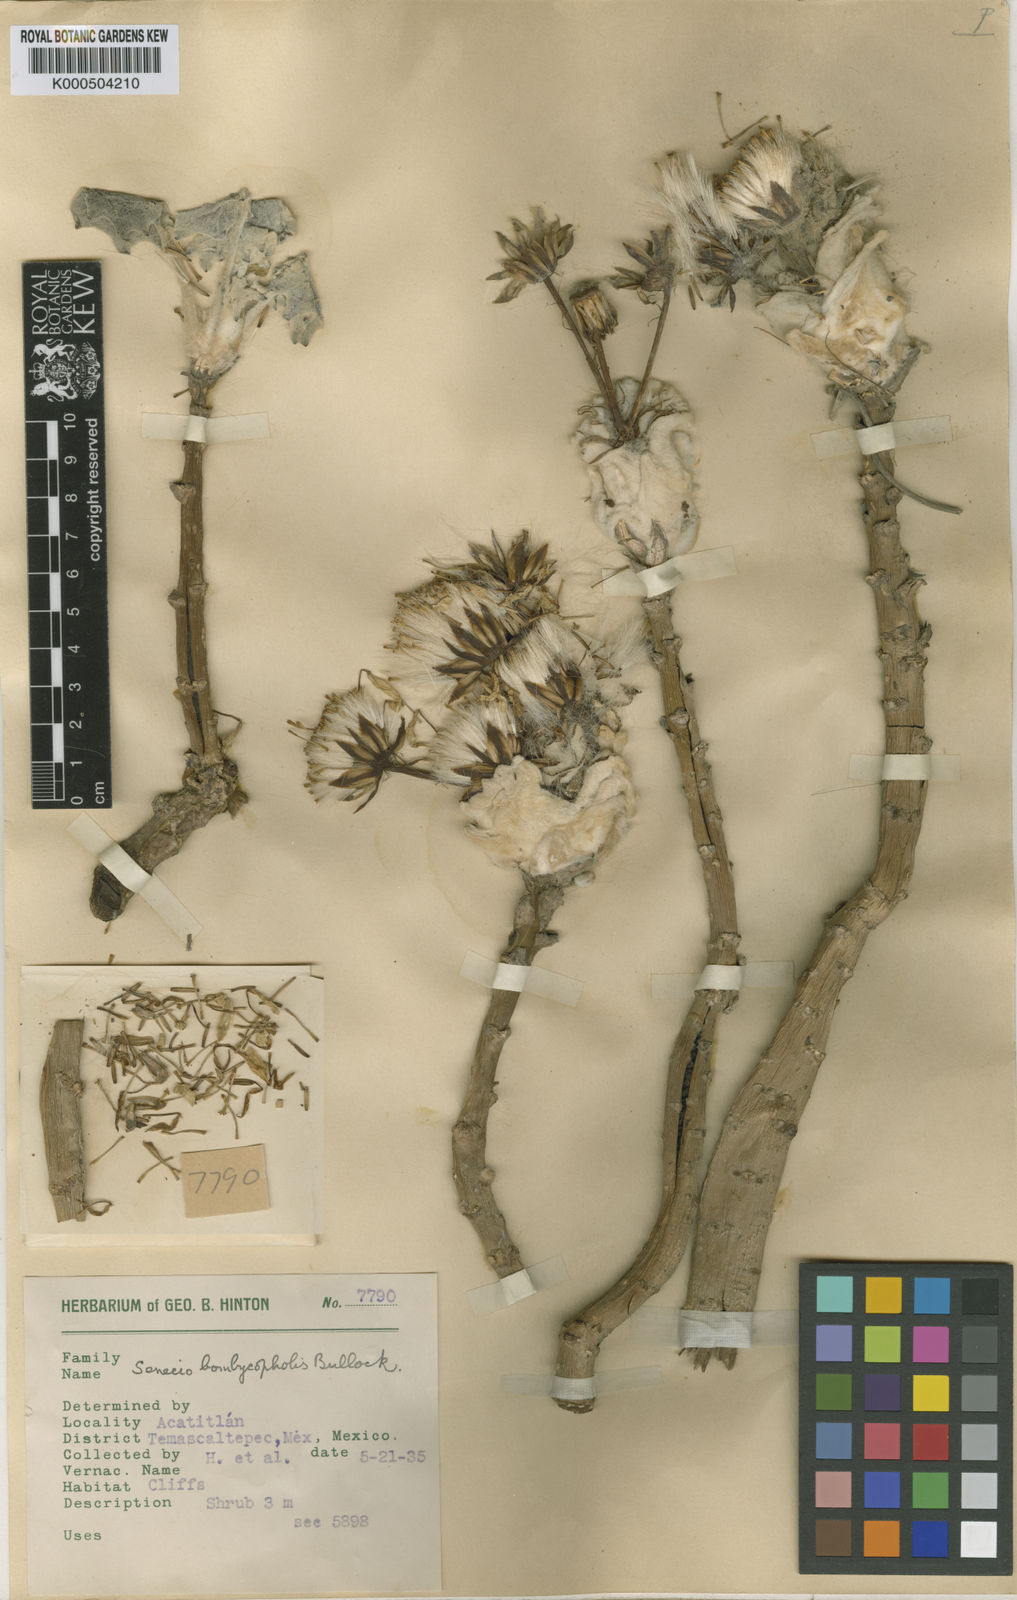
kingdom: Plantae
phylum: Tracheophyta
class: Magnoliopsida
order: Asterales
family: Asteraceae
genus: Pittocaulon
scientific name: Pittocaulon bombycophole
